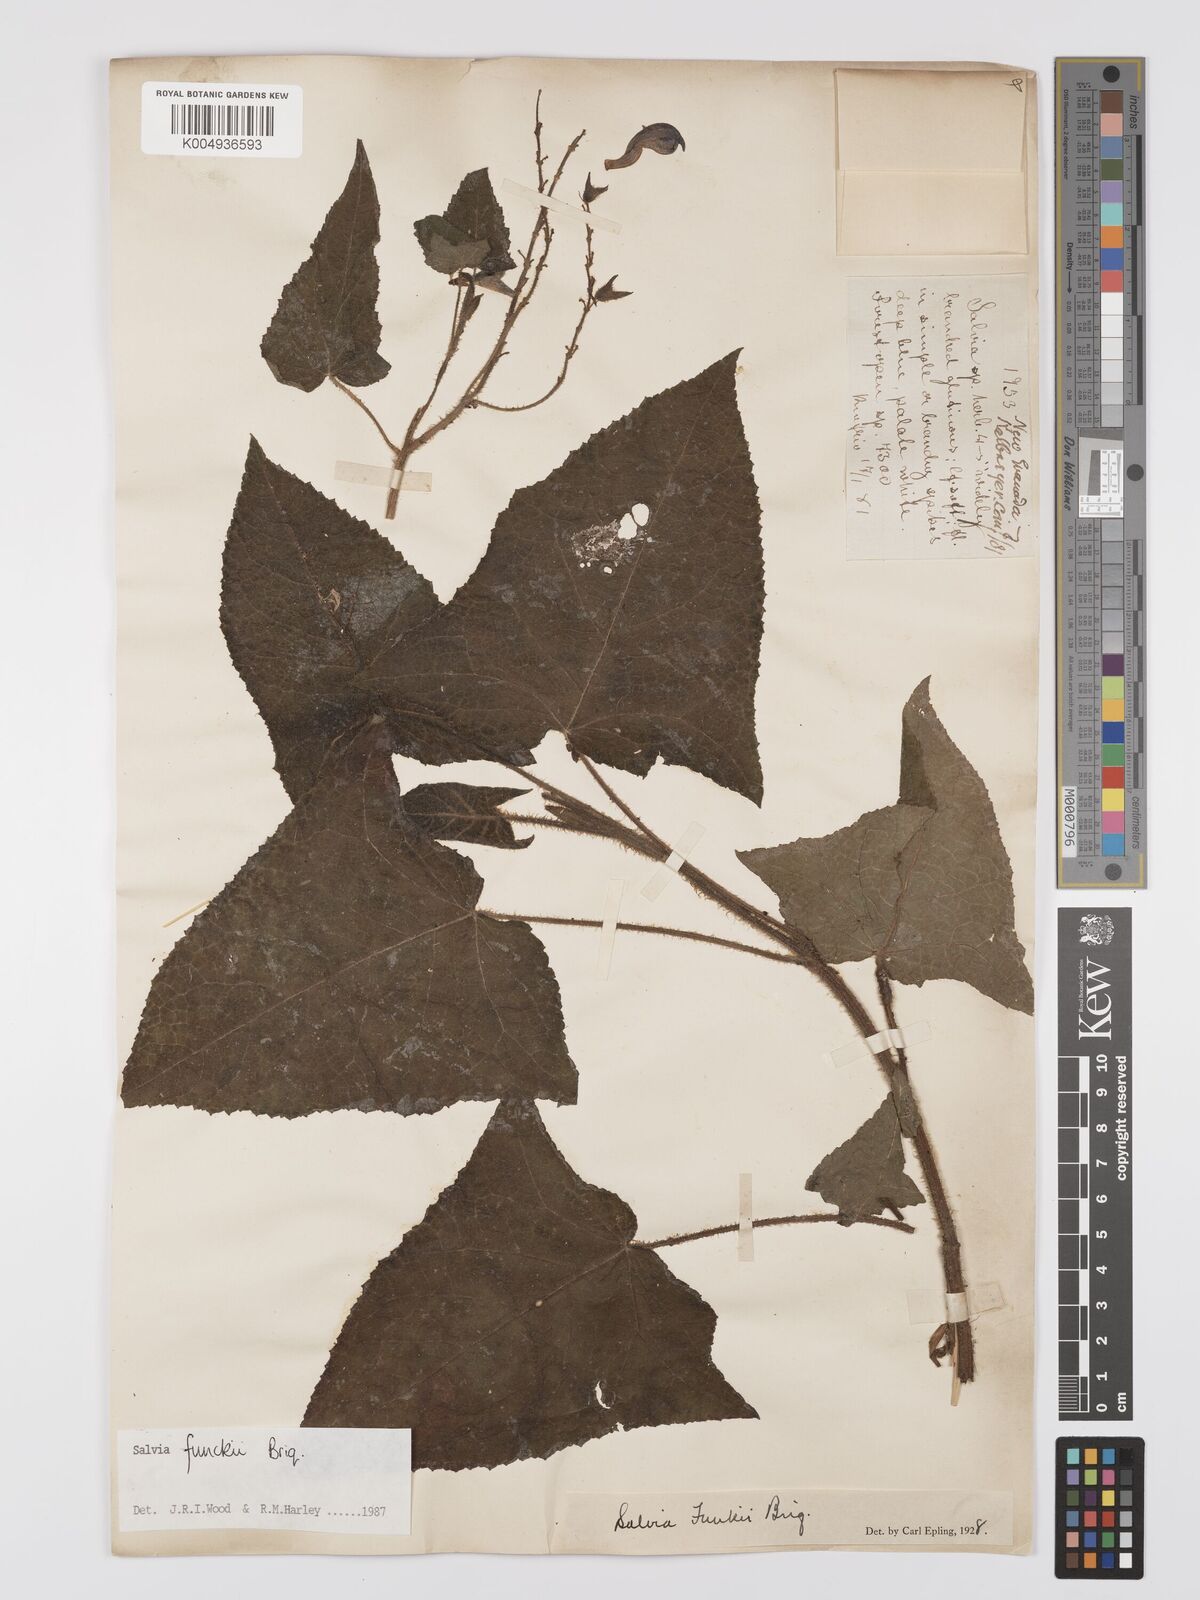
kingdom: Plantae
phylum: Tracheophyta
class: Magnoliopsida
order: Lamiales
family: Lamiaceae
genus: Salvia
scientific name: Salvia funckii
